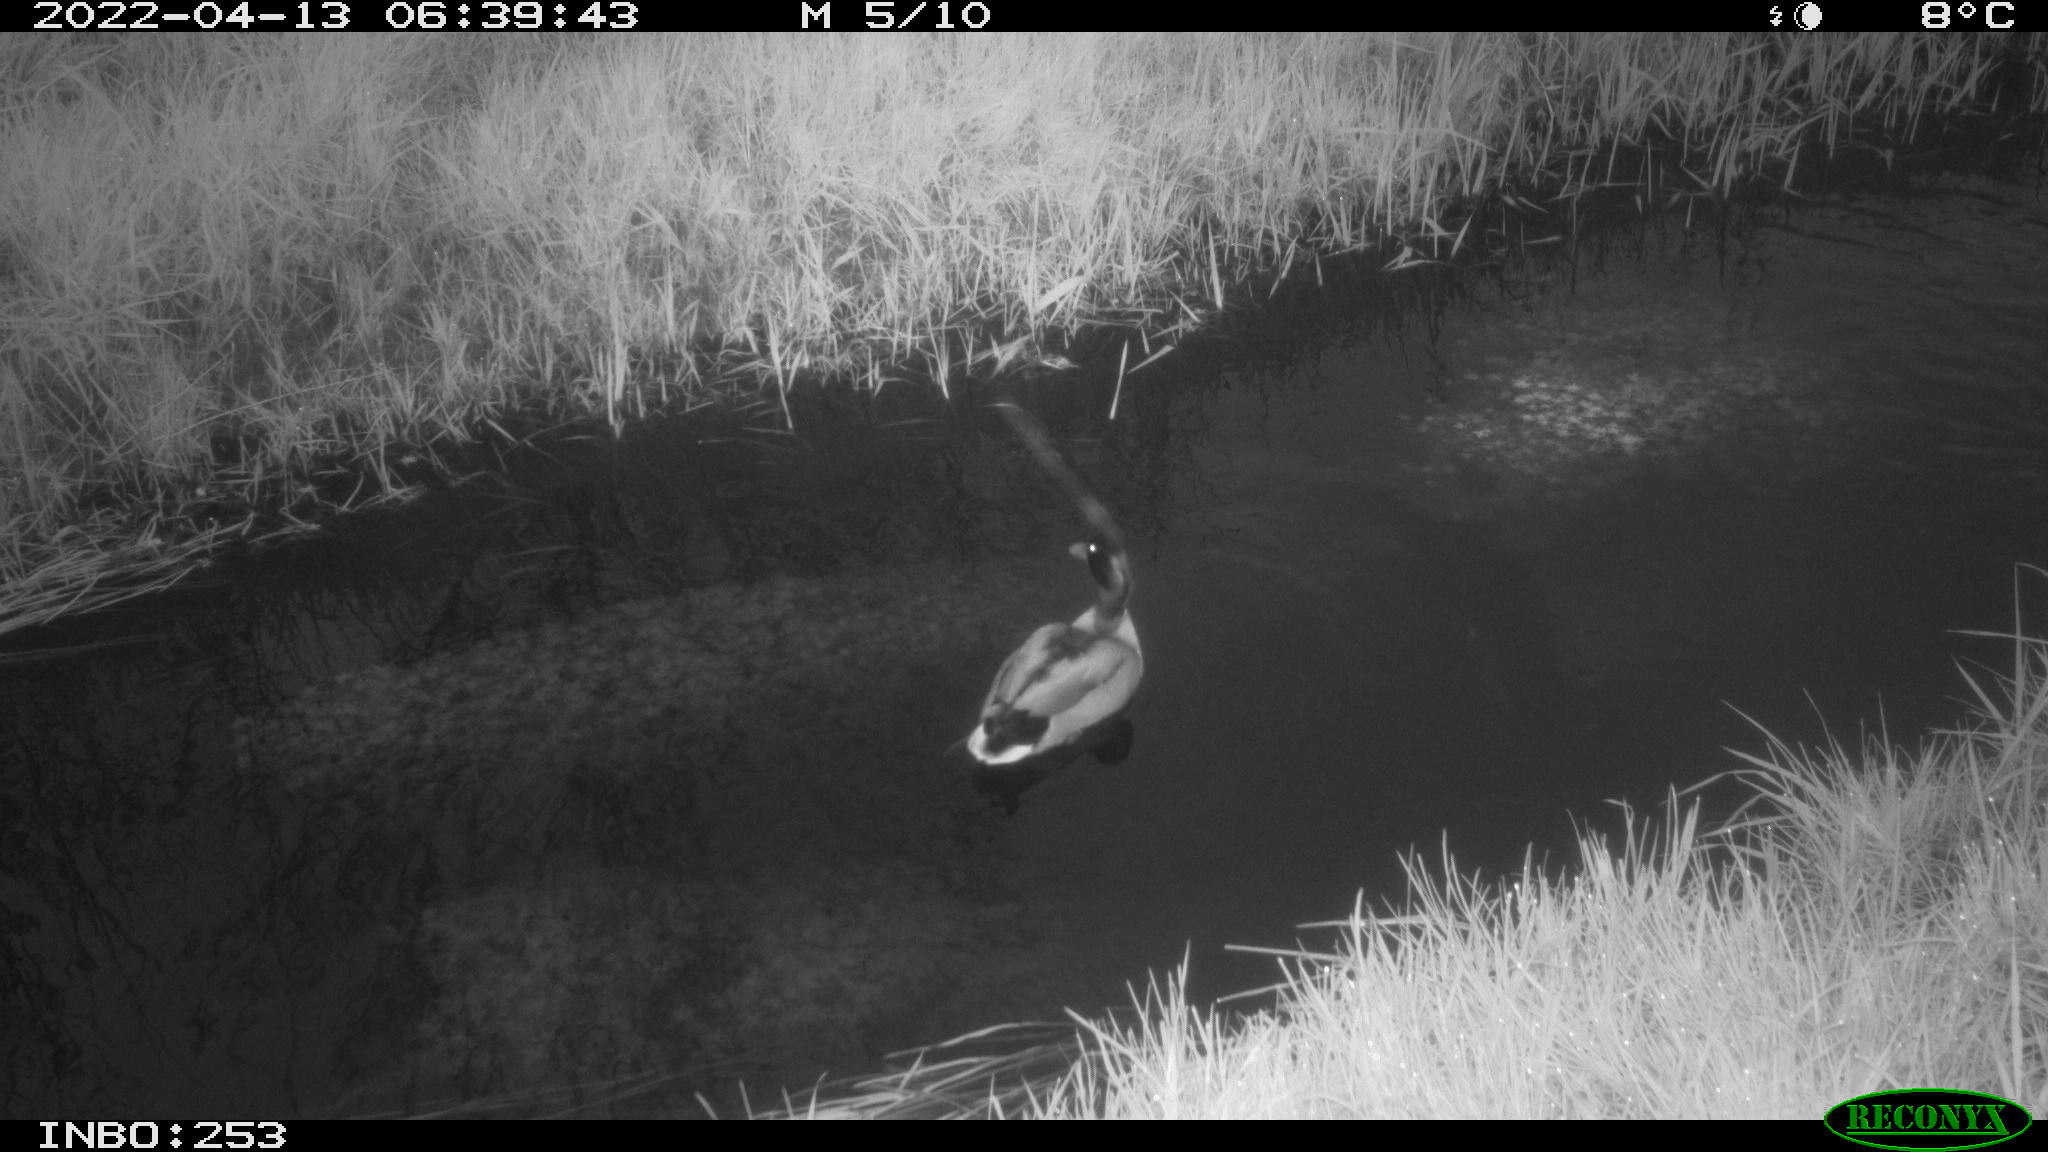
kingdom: Animalia
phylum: Chordata
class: Aves
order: Anseriformes
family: Anatidae
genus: Anas
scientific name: Anas platyrhynchos
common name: Mallard
